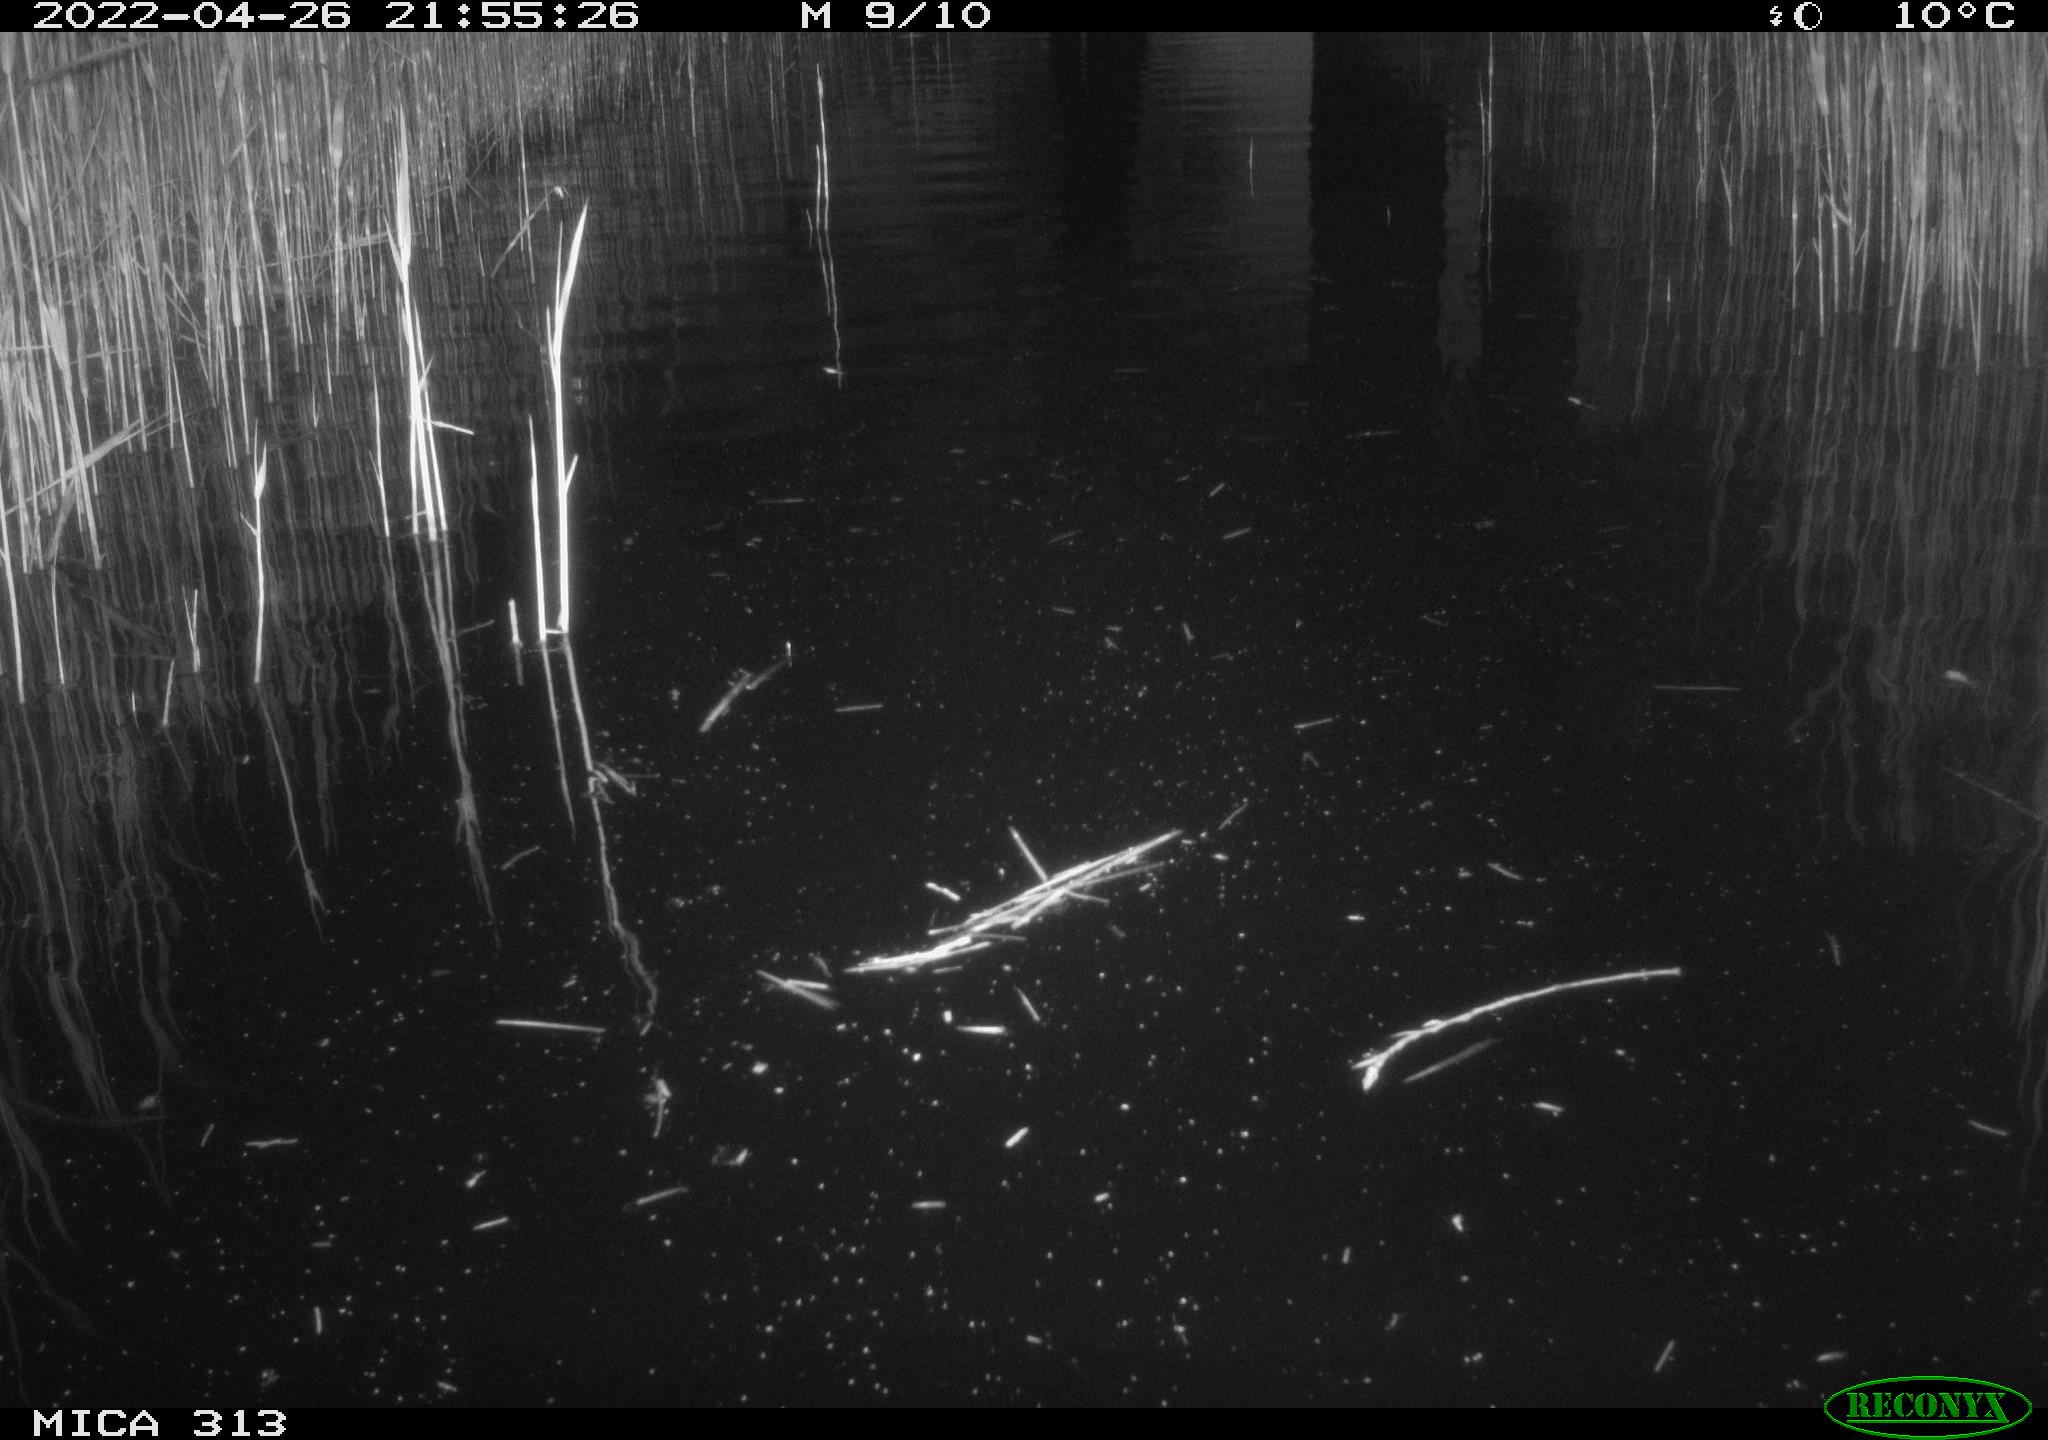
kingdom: Animalia
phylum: Chordata
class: Aves
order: Anseriformes
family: Anatidae
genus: Anas
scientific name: Anas platyrhynchos
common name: Mallard
